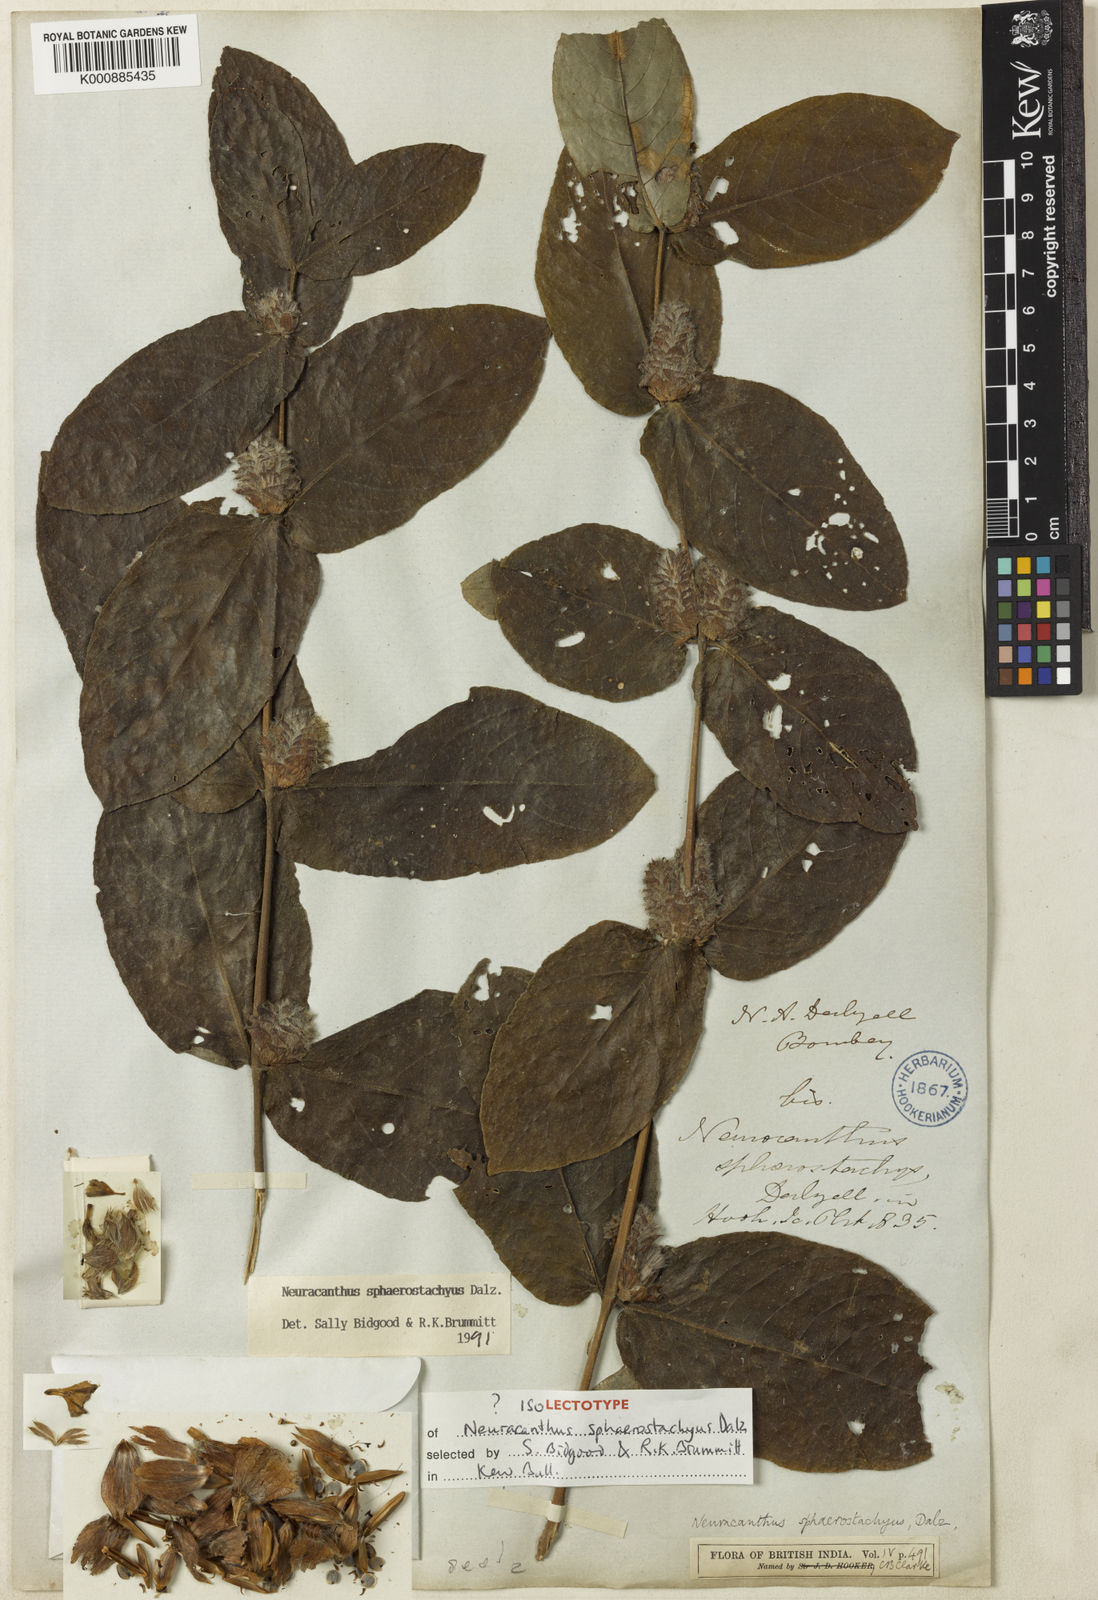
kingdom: Plantae
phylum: Tracheophyta
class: Magnoliopsida
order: Lamiales
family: Acanthaceae
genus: Neuracanthus
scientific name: Neuracanthus
